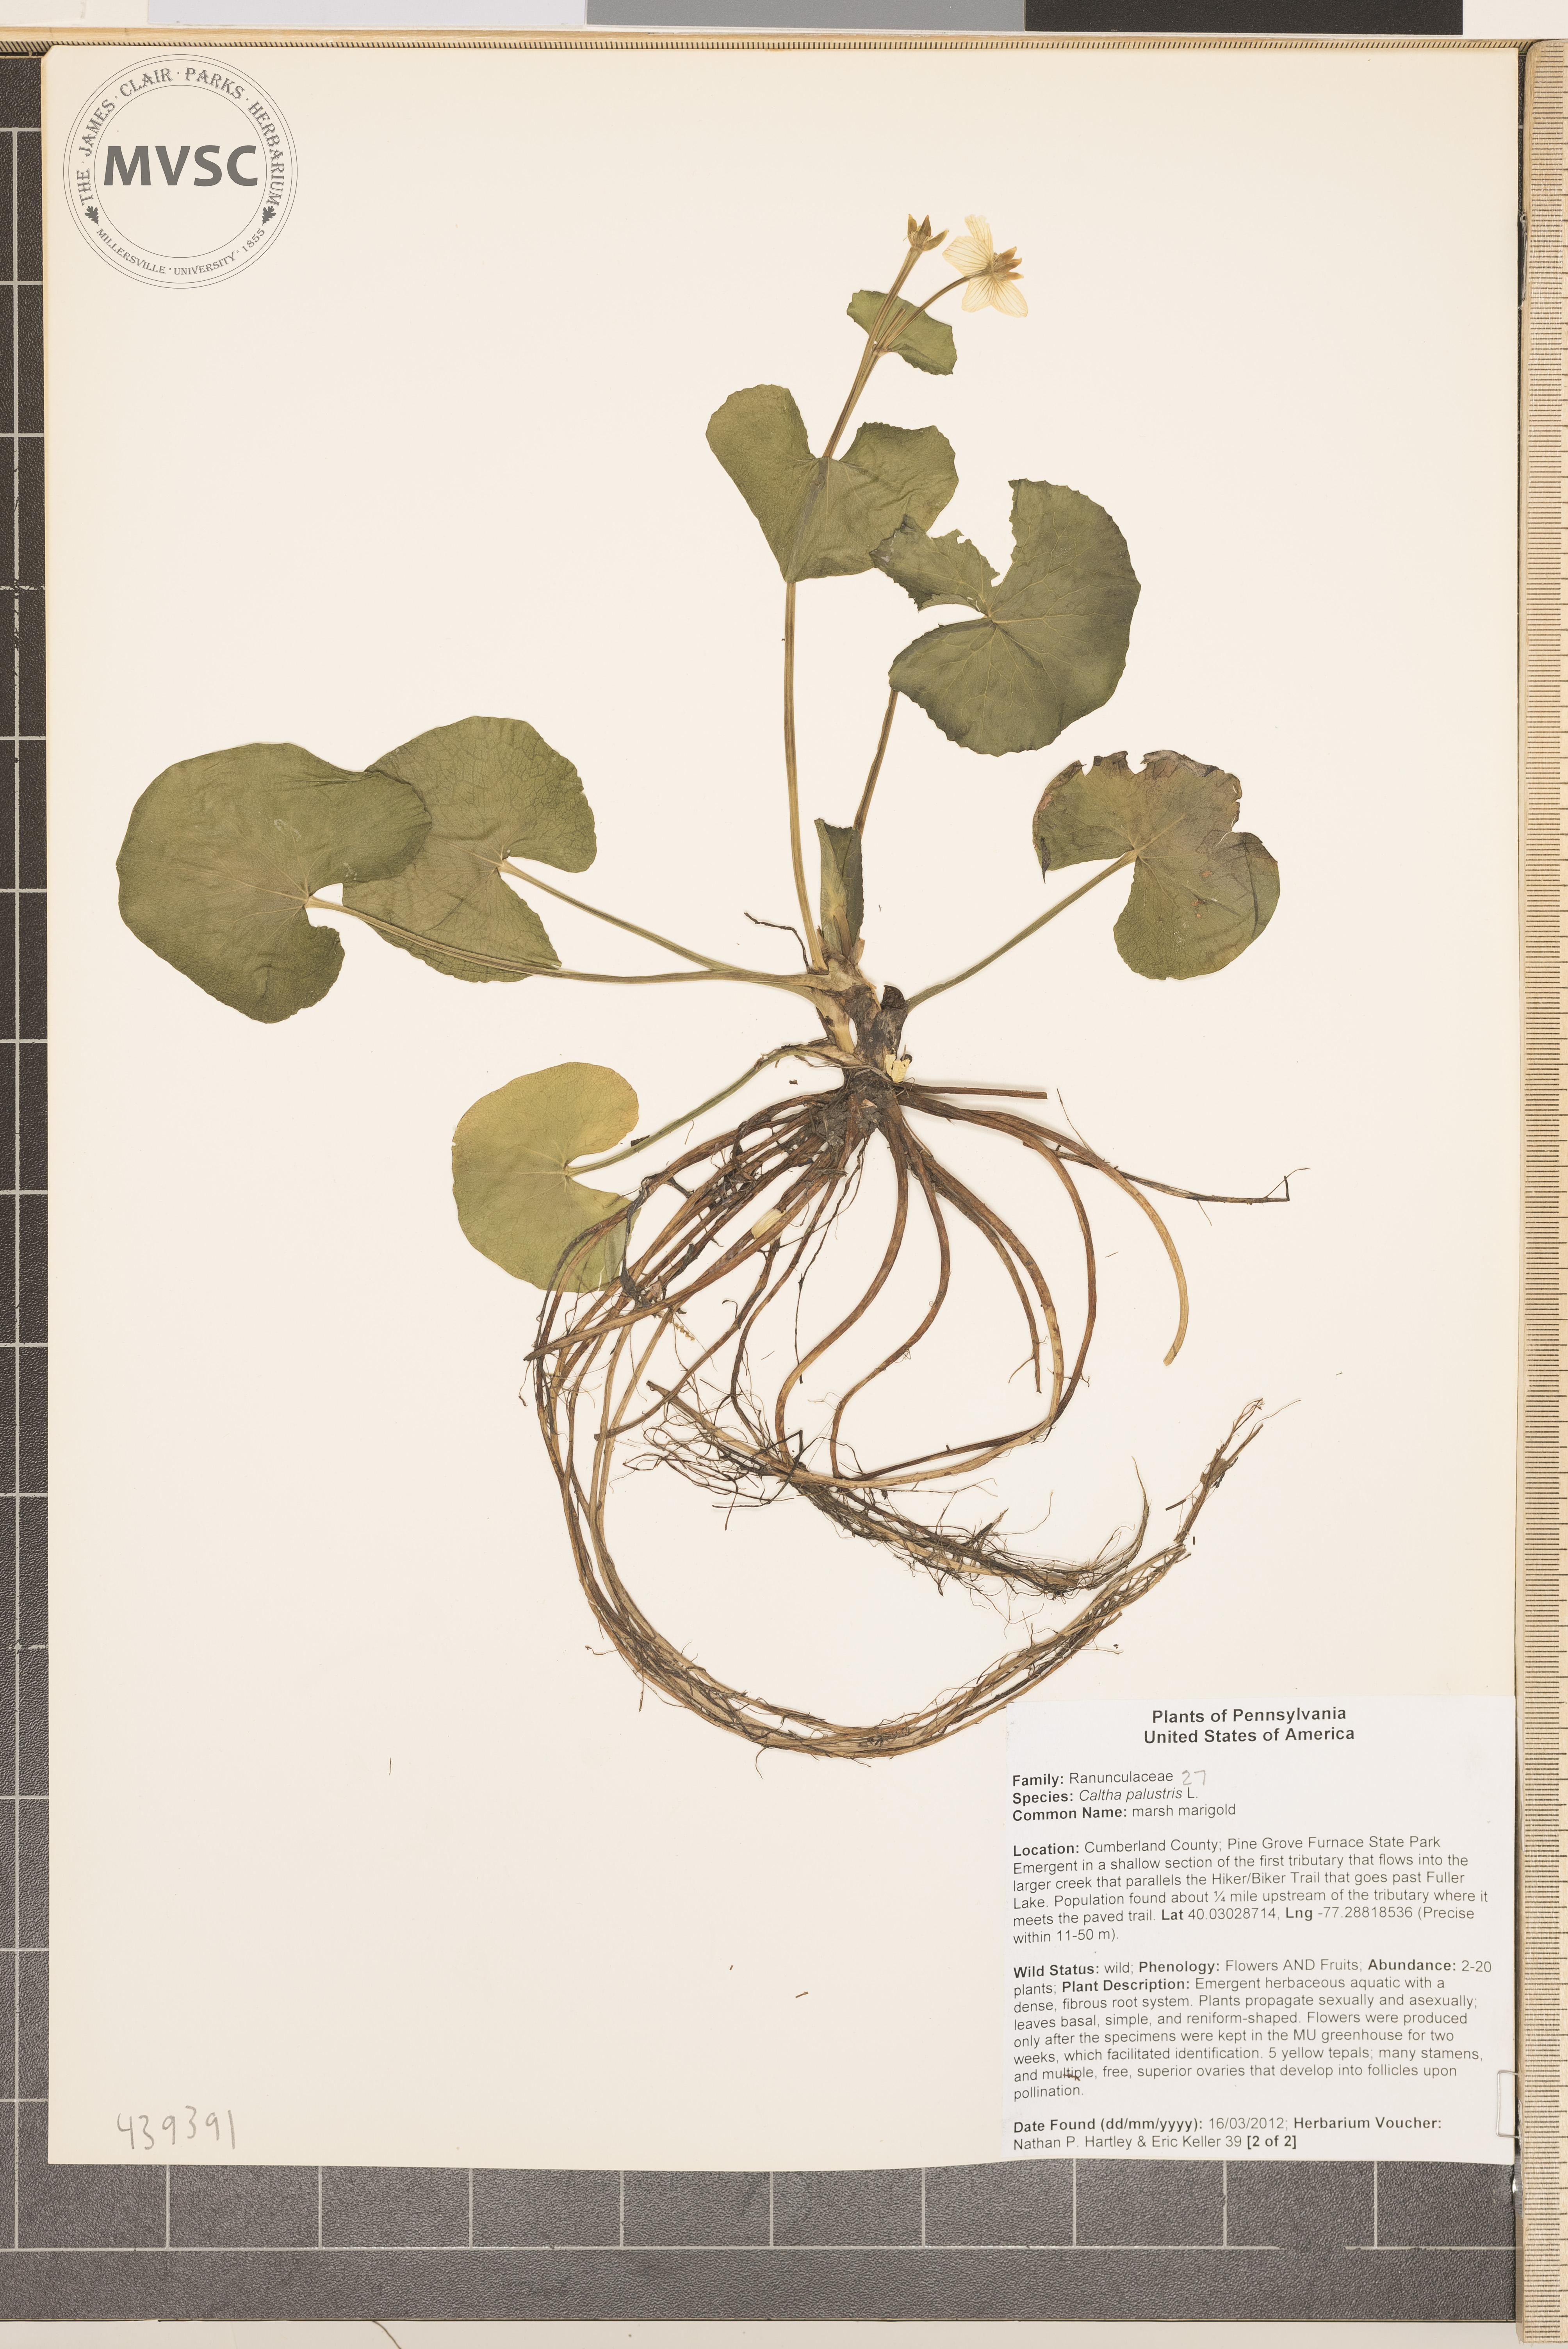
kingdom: Plantae
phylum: Tracheophyta
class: Magnoliopsida
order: Ranunculales
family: Ranunculaceae
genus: Caltha
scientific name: Caltha palustris
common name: Marsh Marigold
